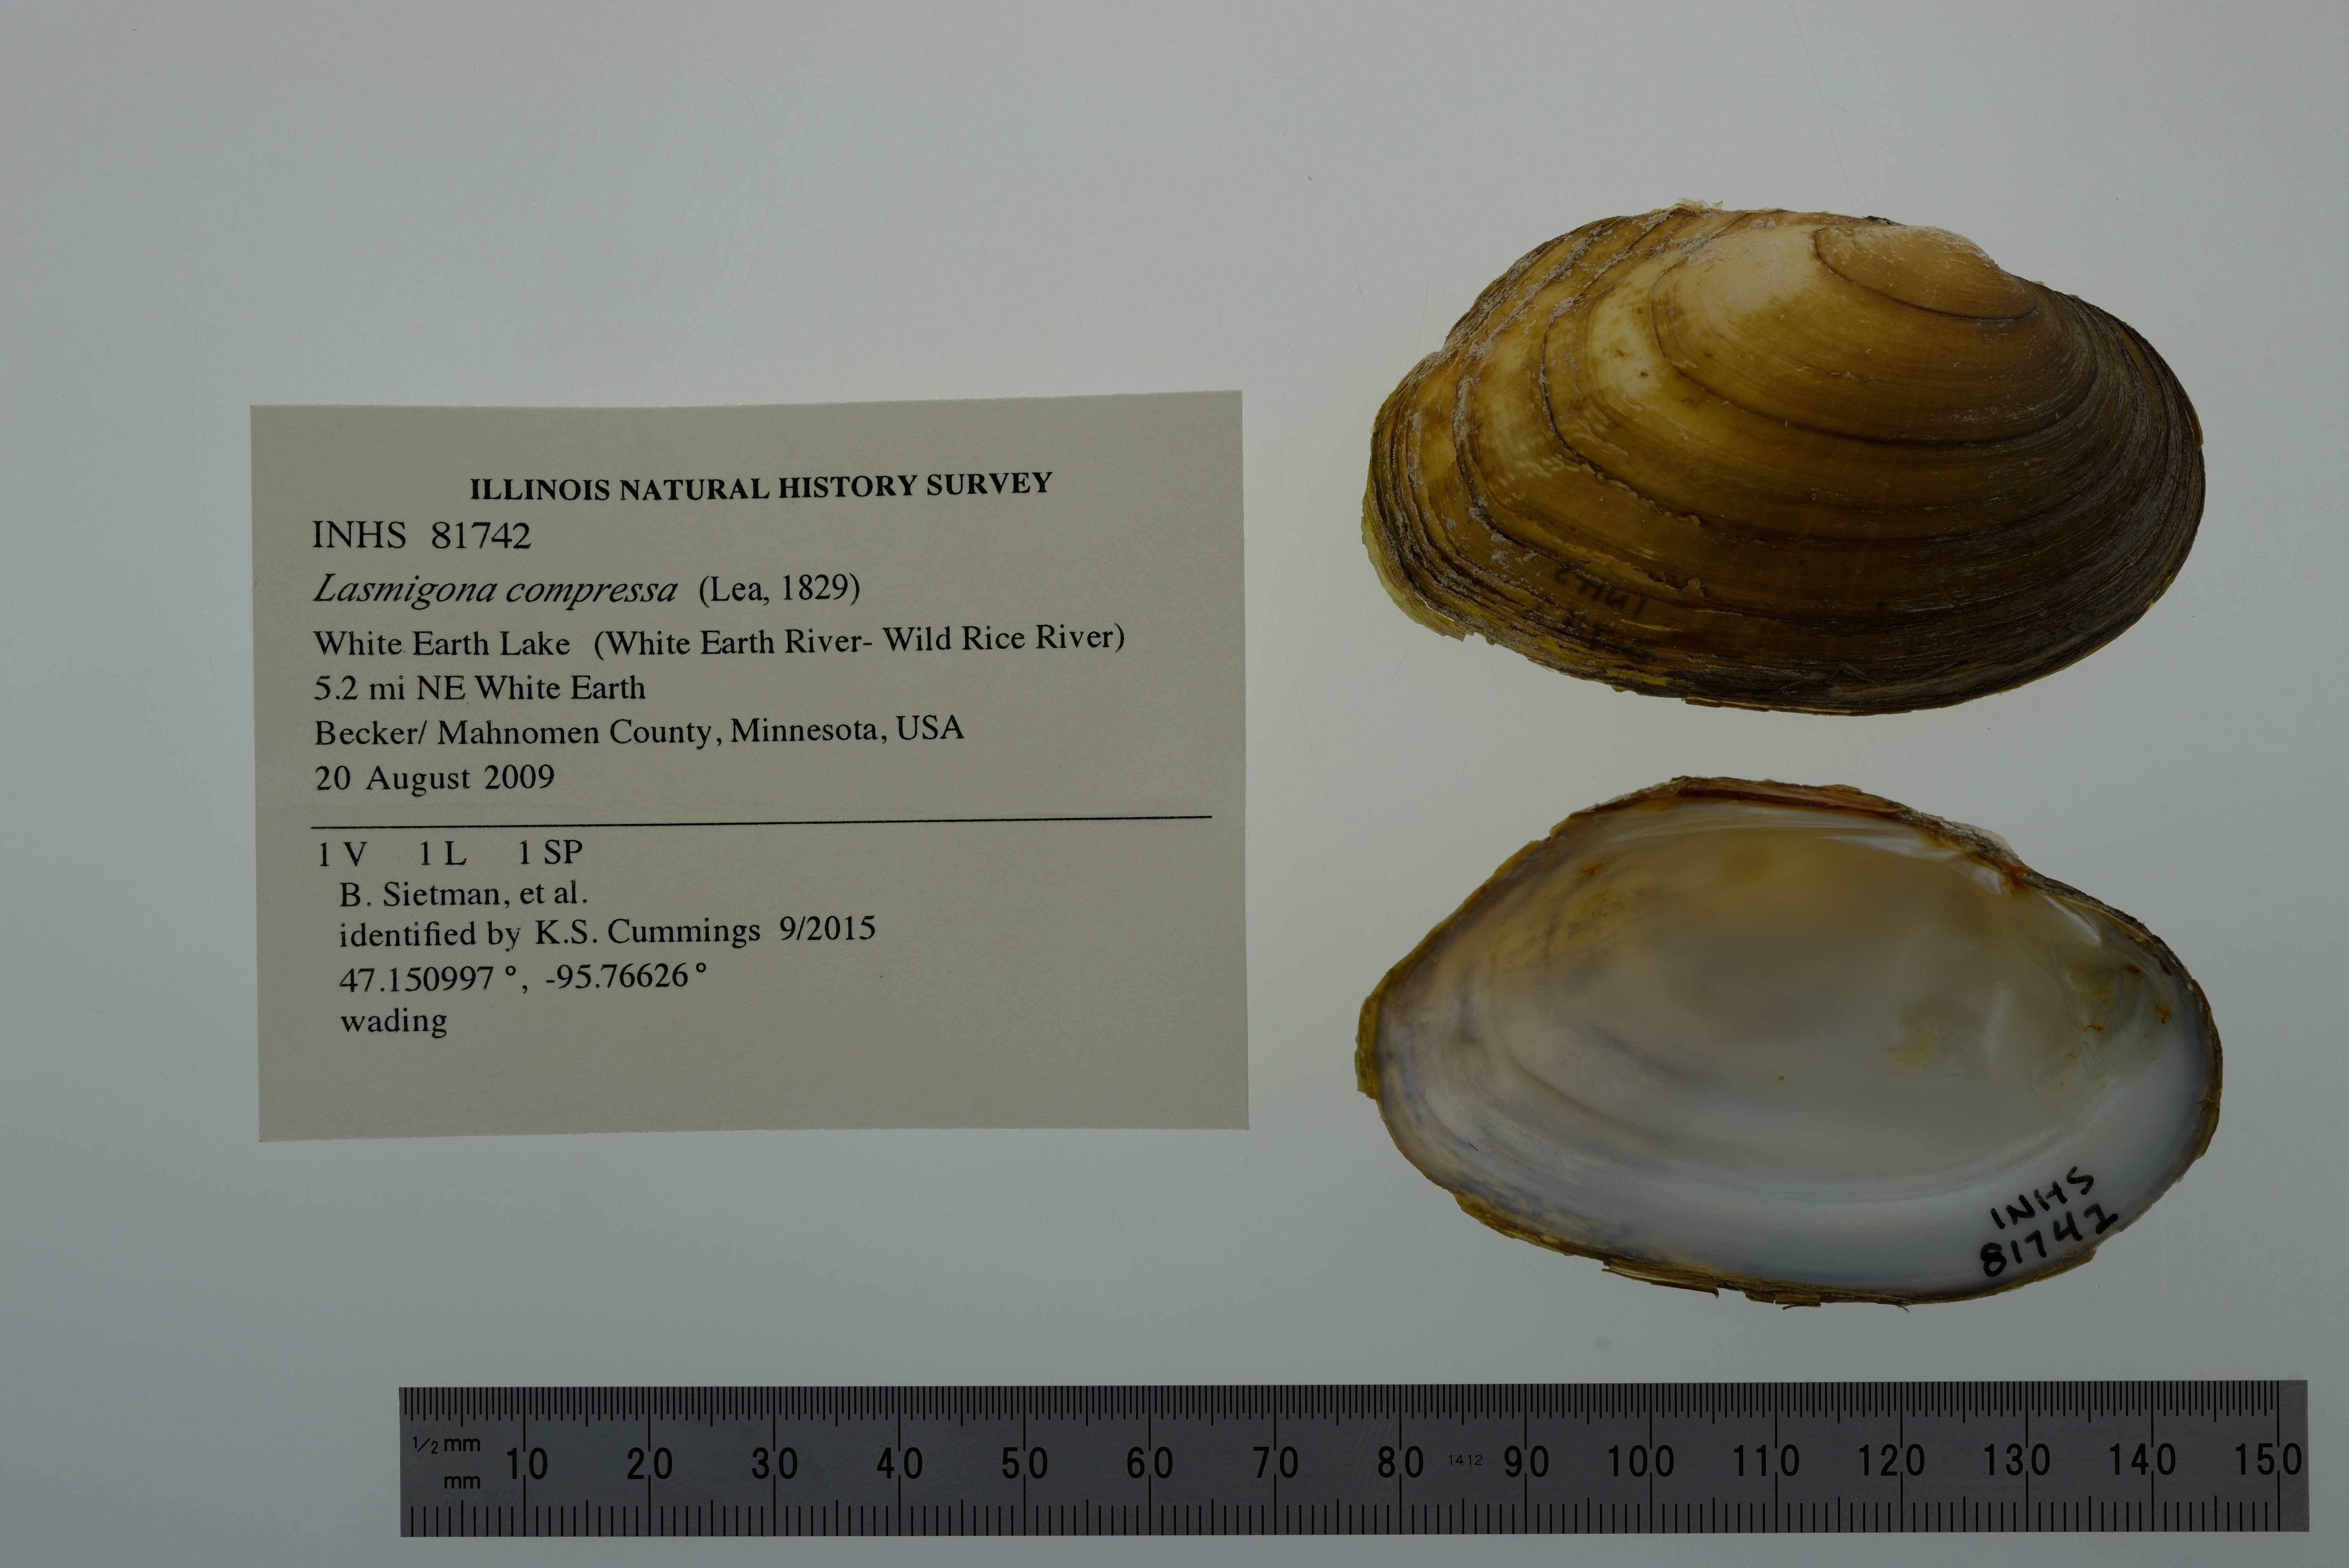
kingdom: Animalia
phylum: Mollusca
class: Bivalvia
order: Unionida
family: Unionidae
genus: Lasmigona
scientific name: Lasmigona compressa
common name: Creek heelsplitter
